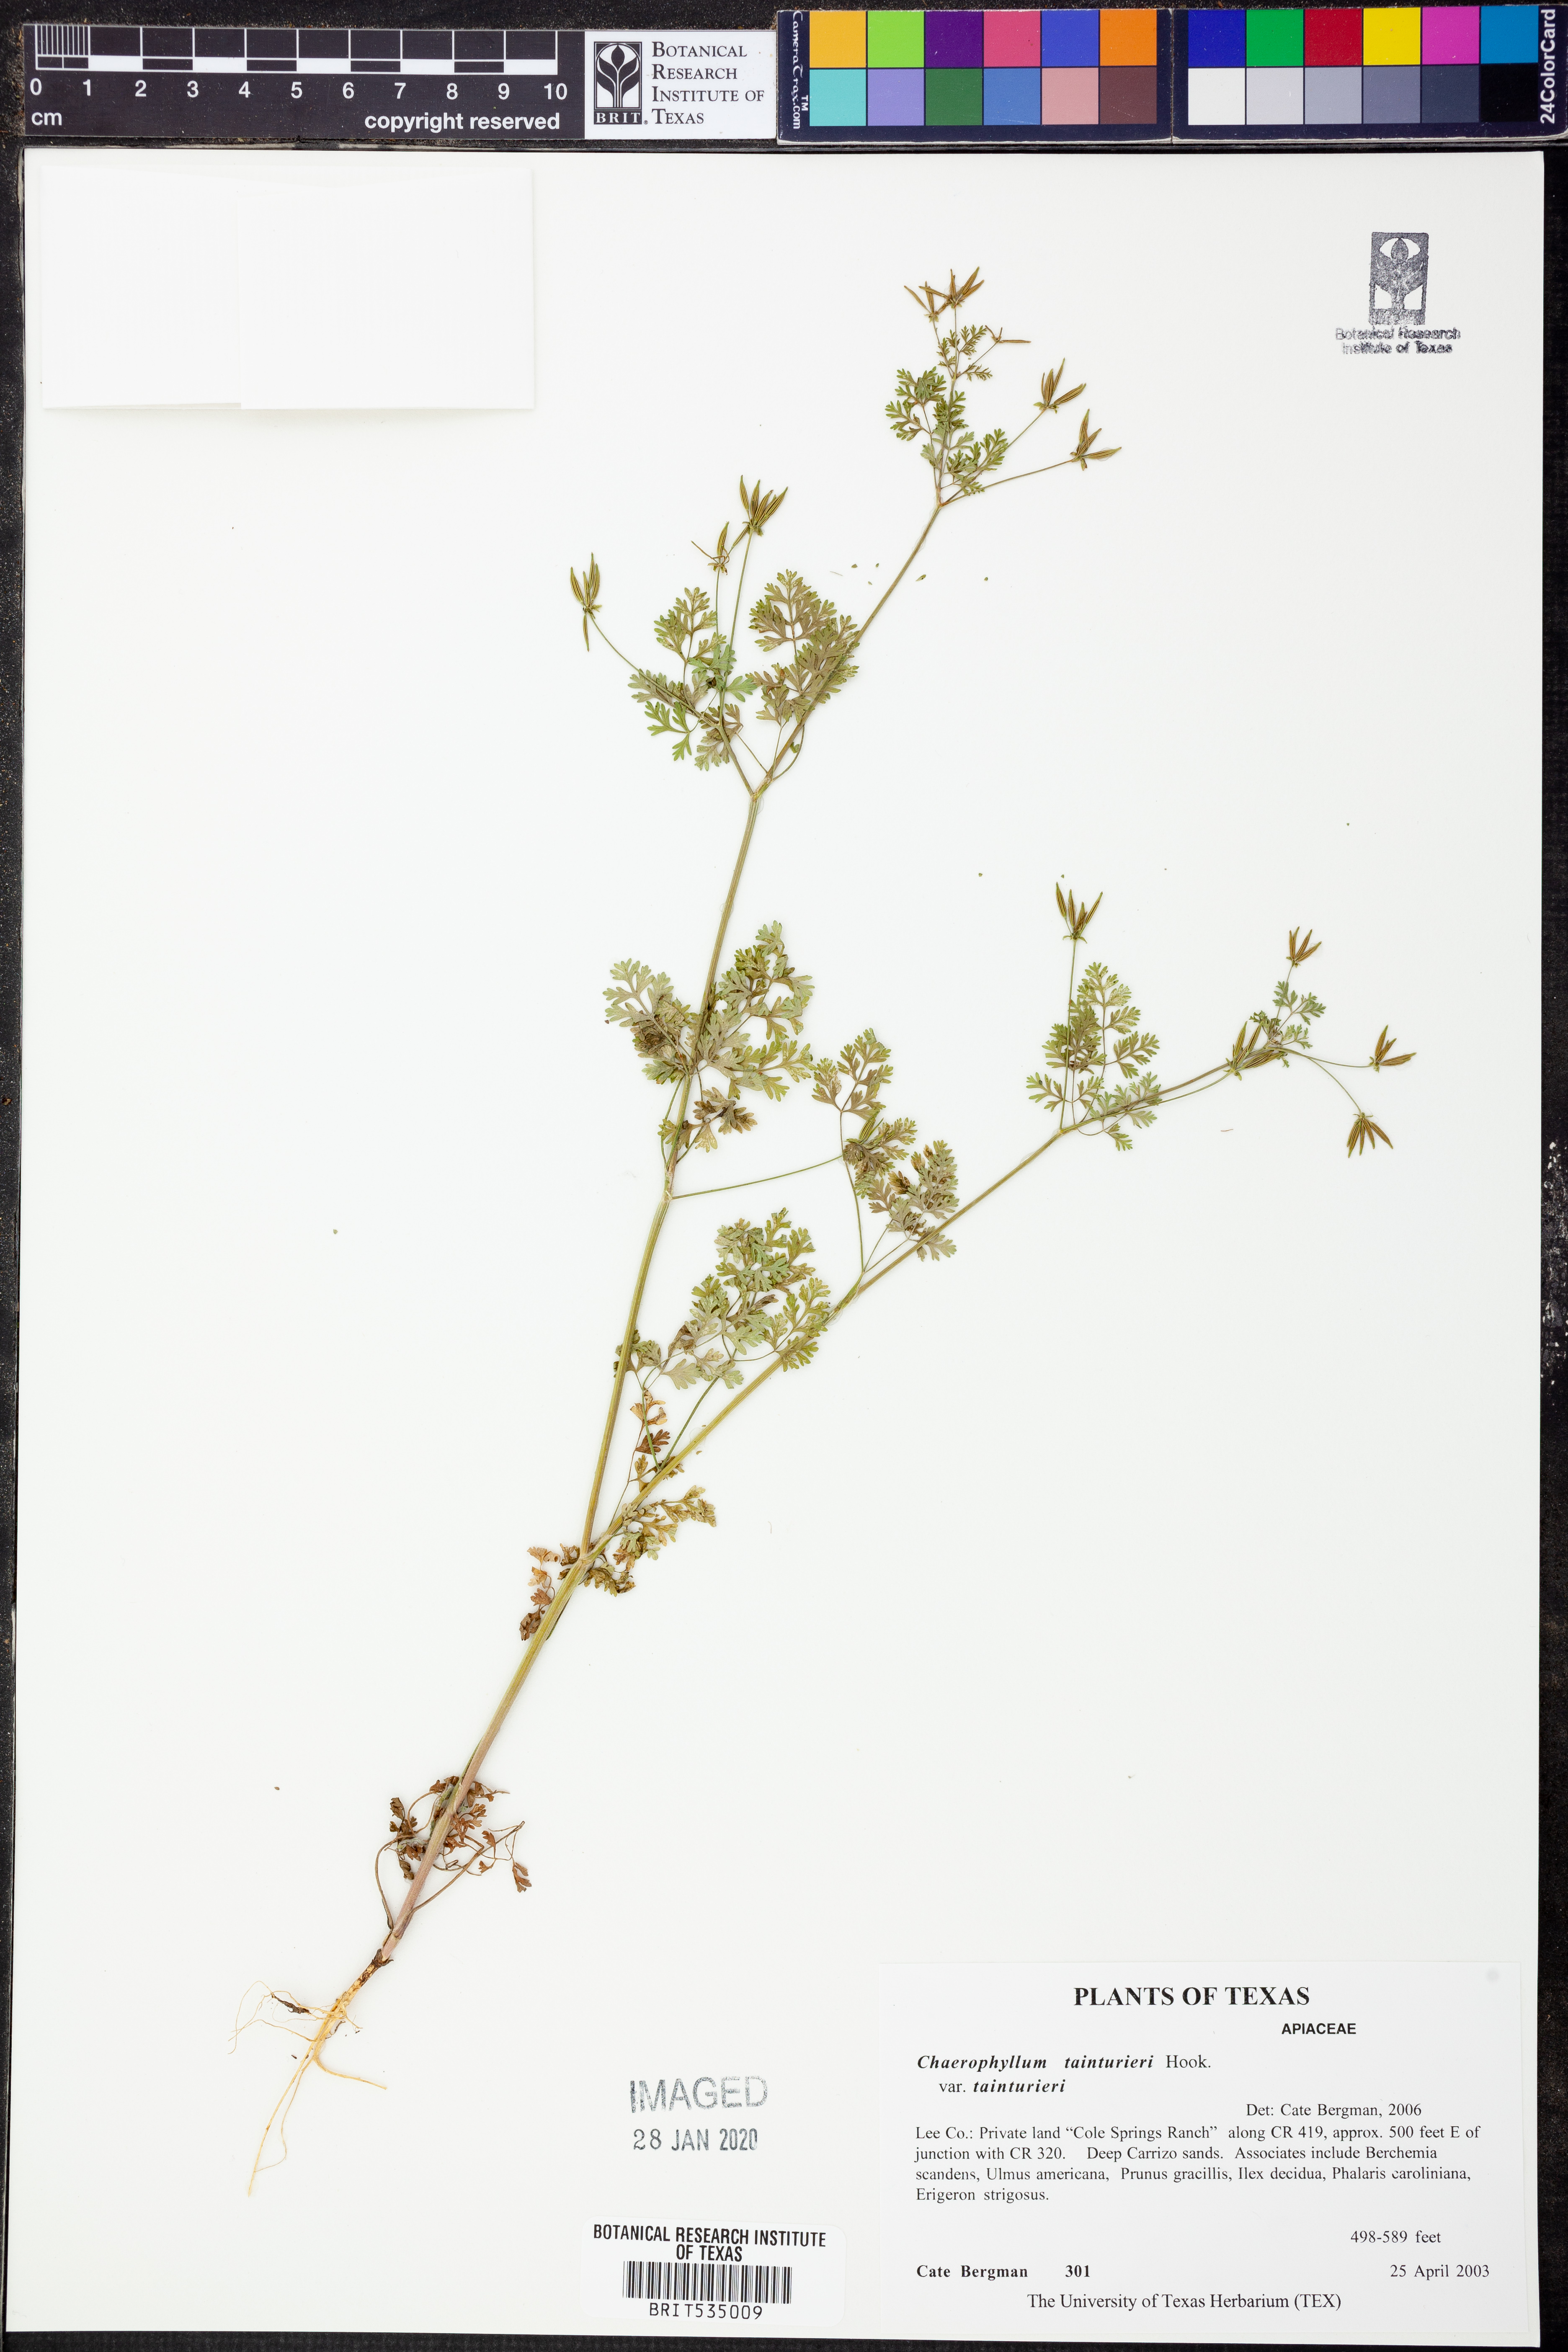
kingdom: Plantae
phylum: Tracheophyta
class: Magnoliopsida
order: Apiales
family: Apiaceae
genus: Chaerophyllum
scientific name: Chaerophyllum tainturieri
